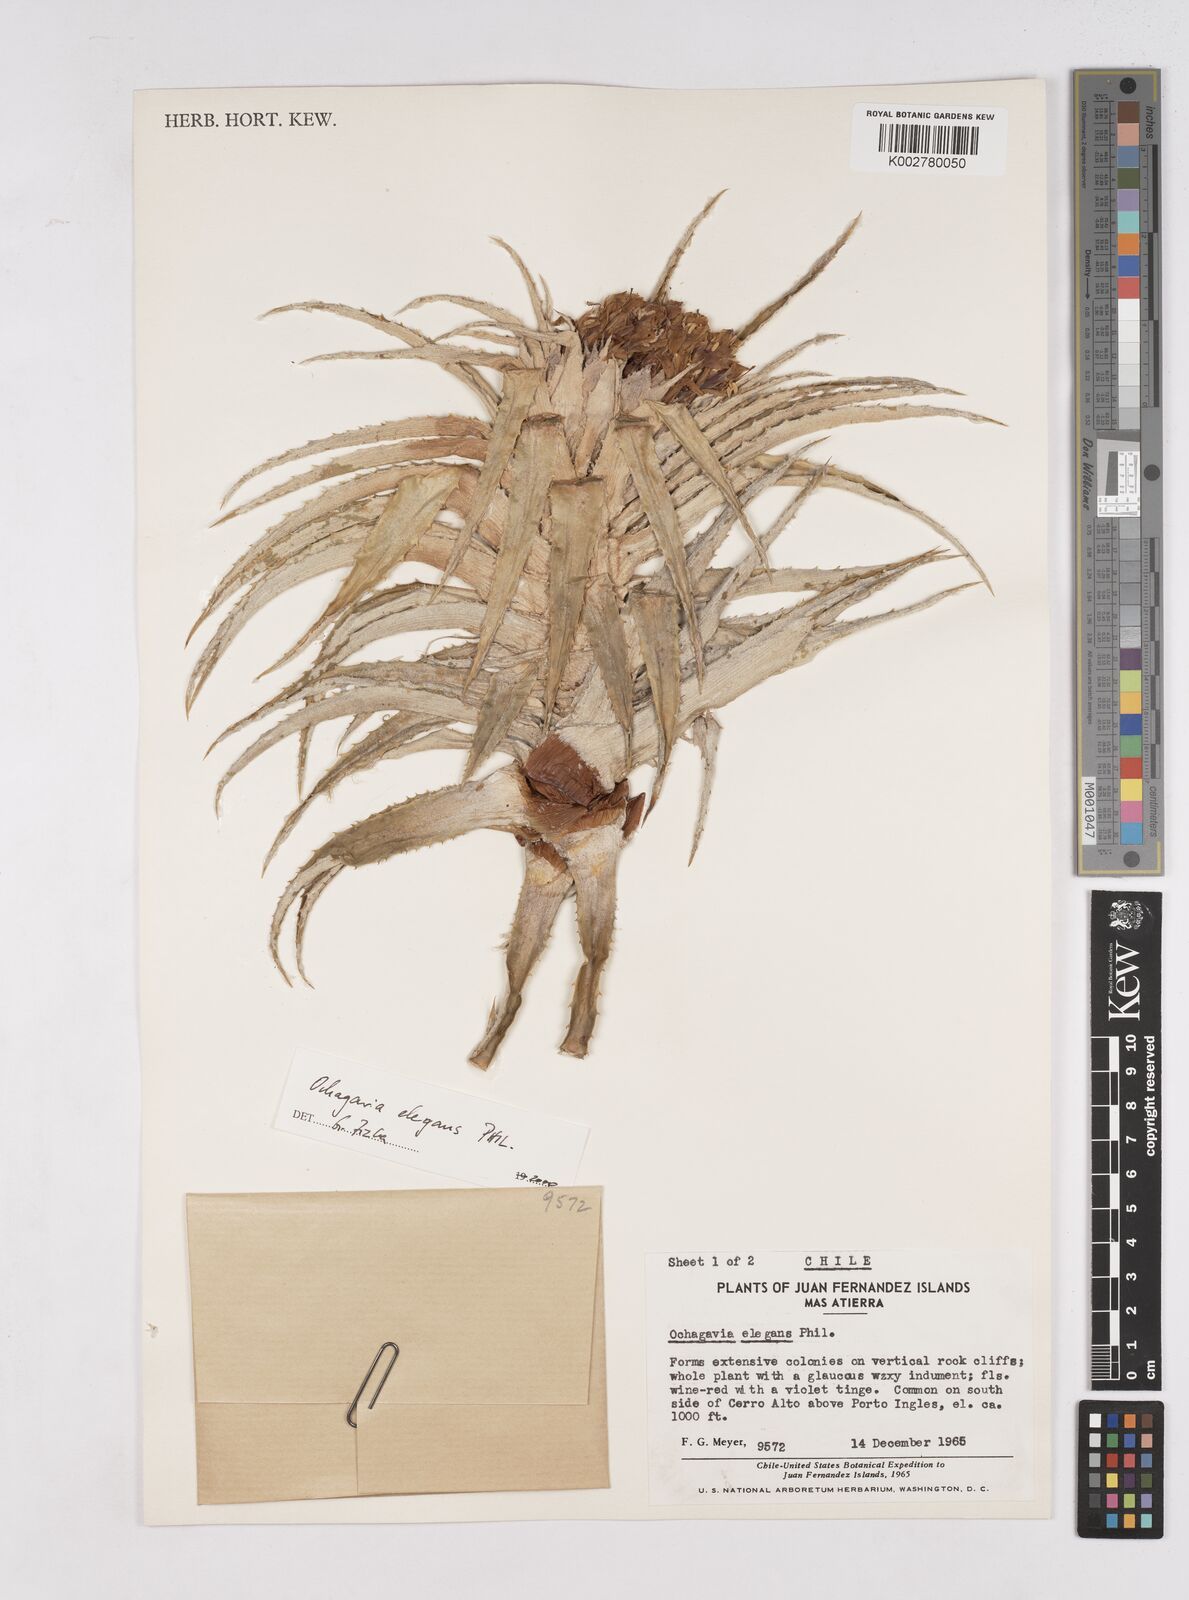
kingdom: Plantae
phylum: Tracheophyta
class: Liliopsida
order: Poales
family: Bromeliaceae
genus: Ochagavia
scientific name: Ochagavia elegans
